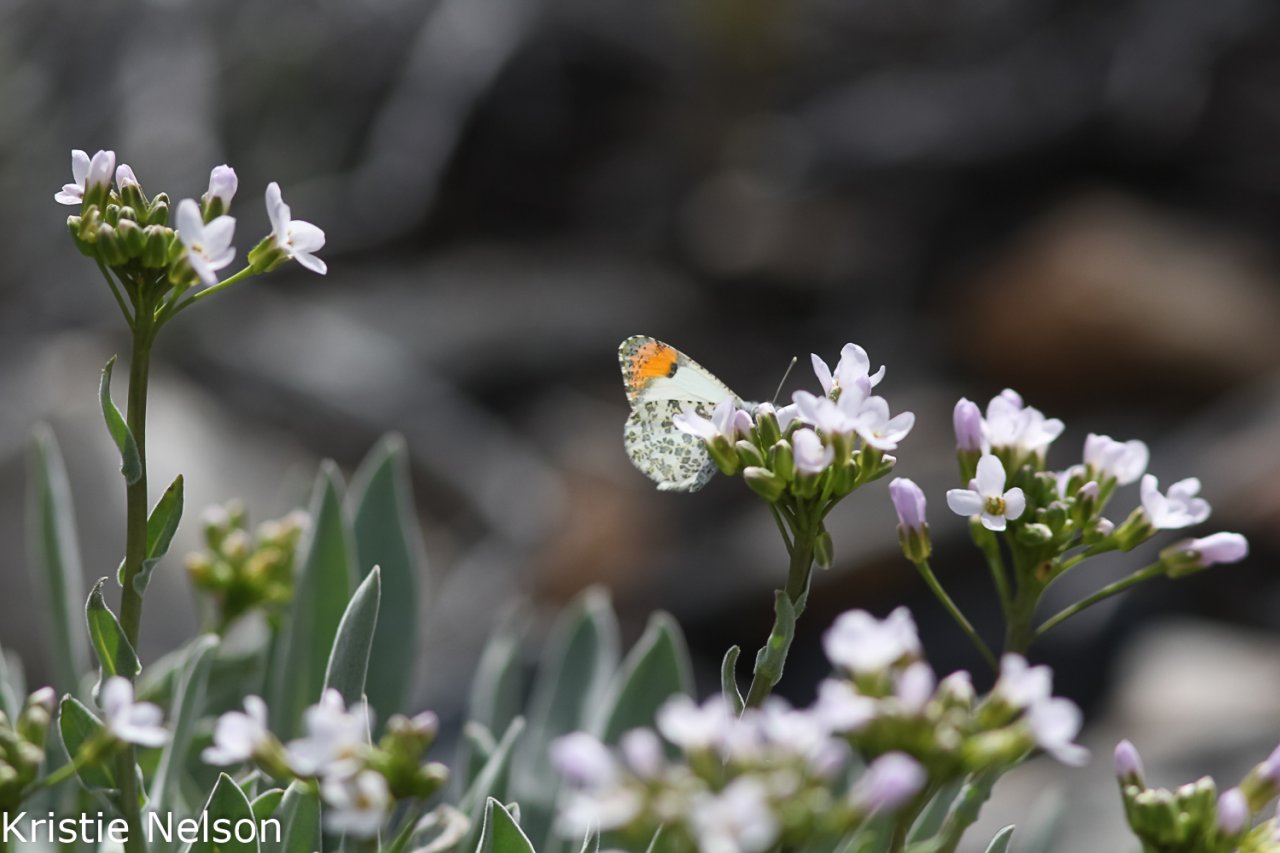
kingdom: Animalia
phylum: Arthropoda
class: Insecta
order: Lepidoptera
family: Pieridae
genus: Anthocharis
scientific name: Anthocharis sara
